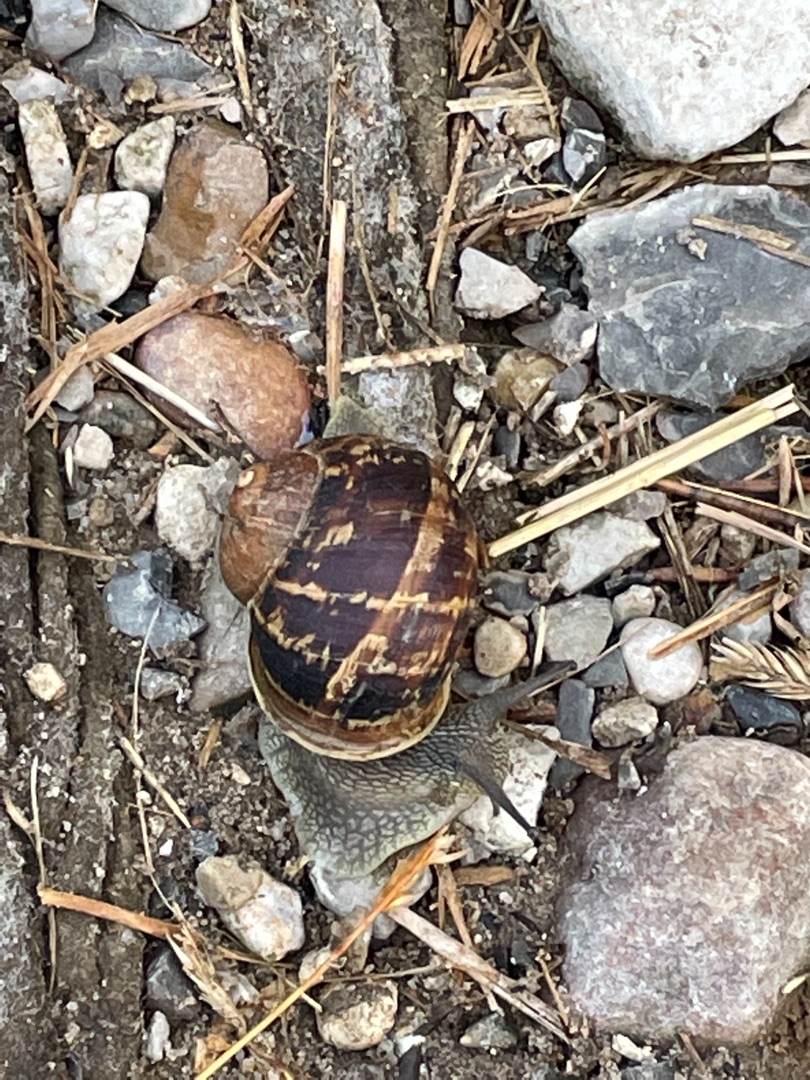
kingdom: Animalia
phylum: Mollusca
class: Gastropoda
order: Stylommatophora
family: Helicidae
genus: Cornu
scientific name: Cornu aspersum
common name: Plettet voldsnegl
